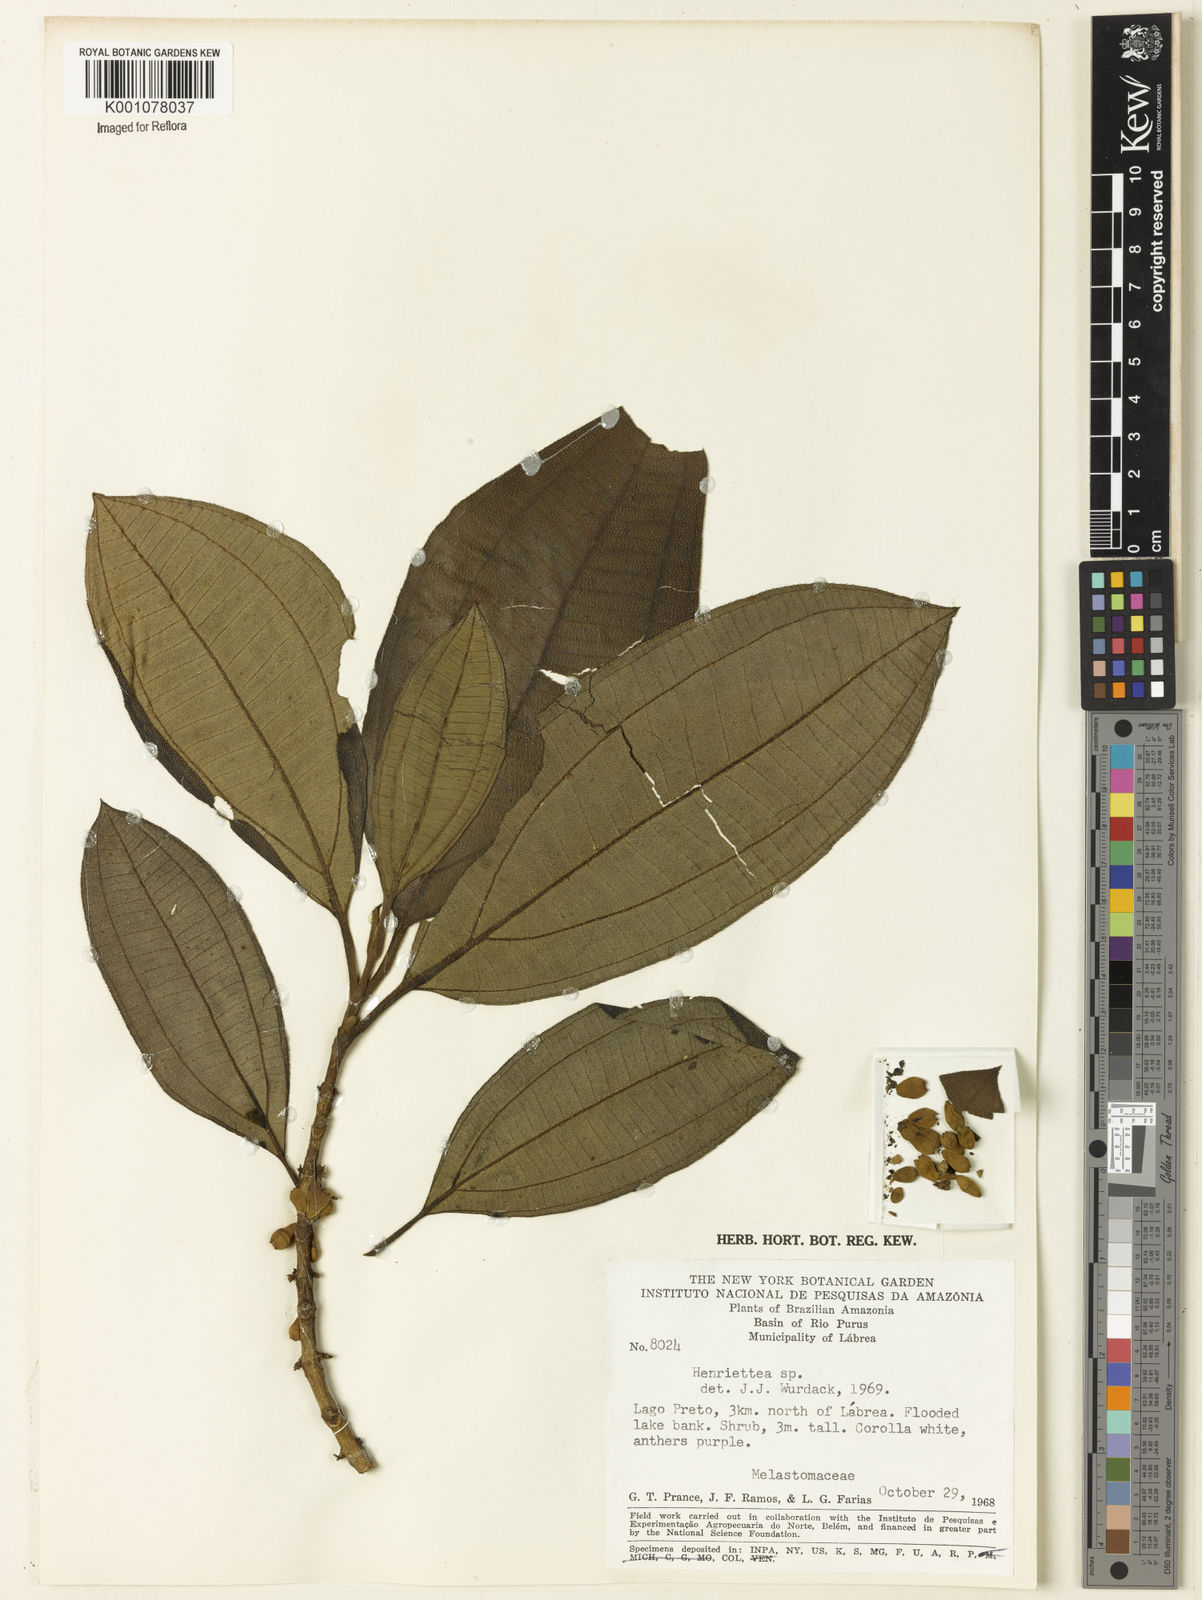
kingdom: Plantae
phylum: Tracheophyta
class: Magnoliopsida
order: Myrtales
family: Melastomataceae
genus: Henriettea
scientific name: Henriettea
